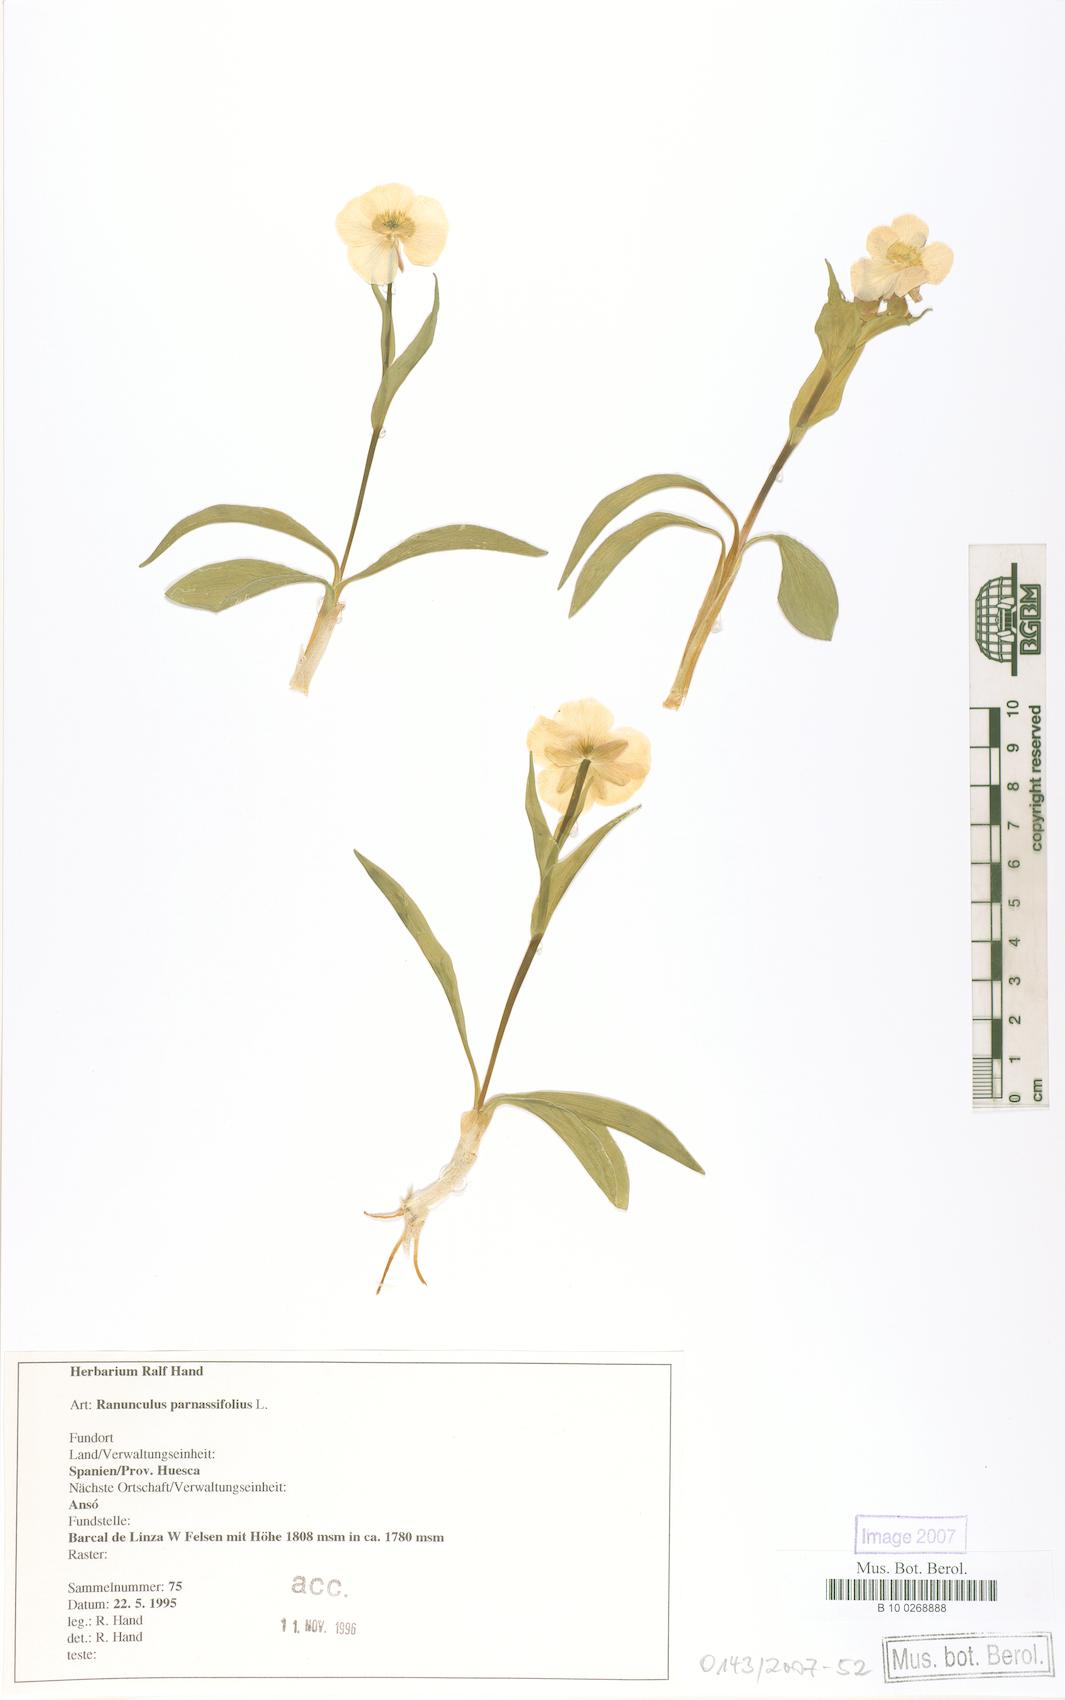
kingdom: Plantae
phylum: Tracheophyta
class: Magnoliopsida
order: Ranunculales
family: Ranunculaceae
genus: Ranunculus
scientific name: Ranunculus parnassiifolius
